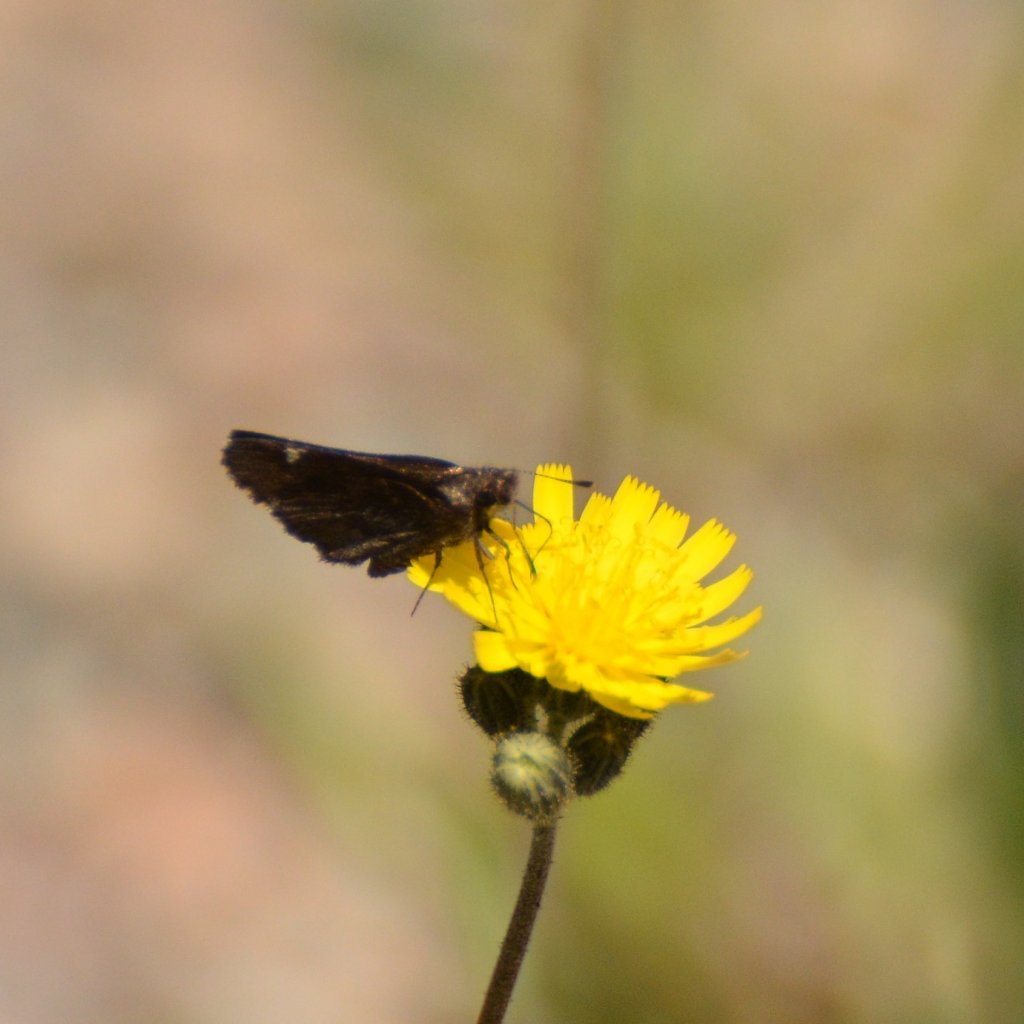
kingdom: Animalia
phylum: Arthropoda
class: Insecta
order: Lepidoptera
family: Hesperiidae
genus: Mastor
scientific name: Mastor vialis
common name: Common Roadside-Skipper
